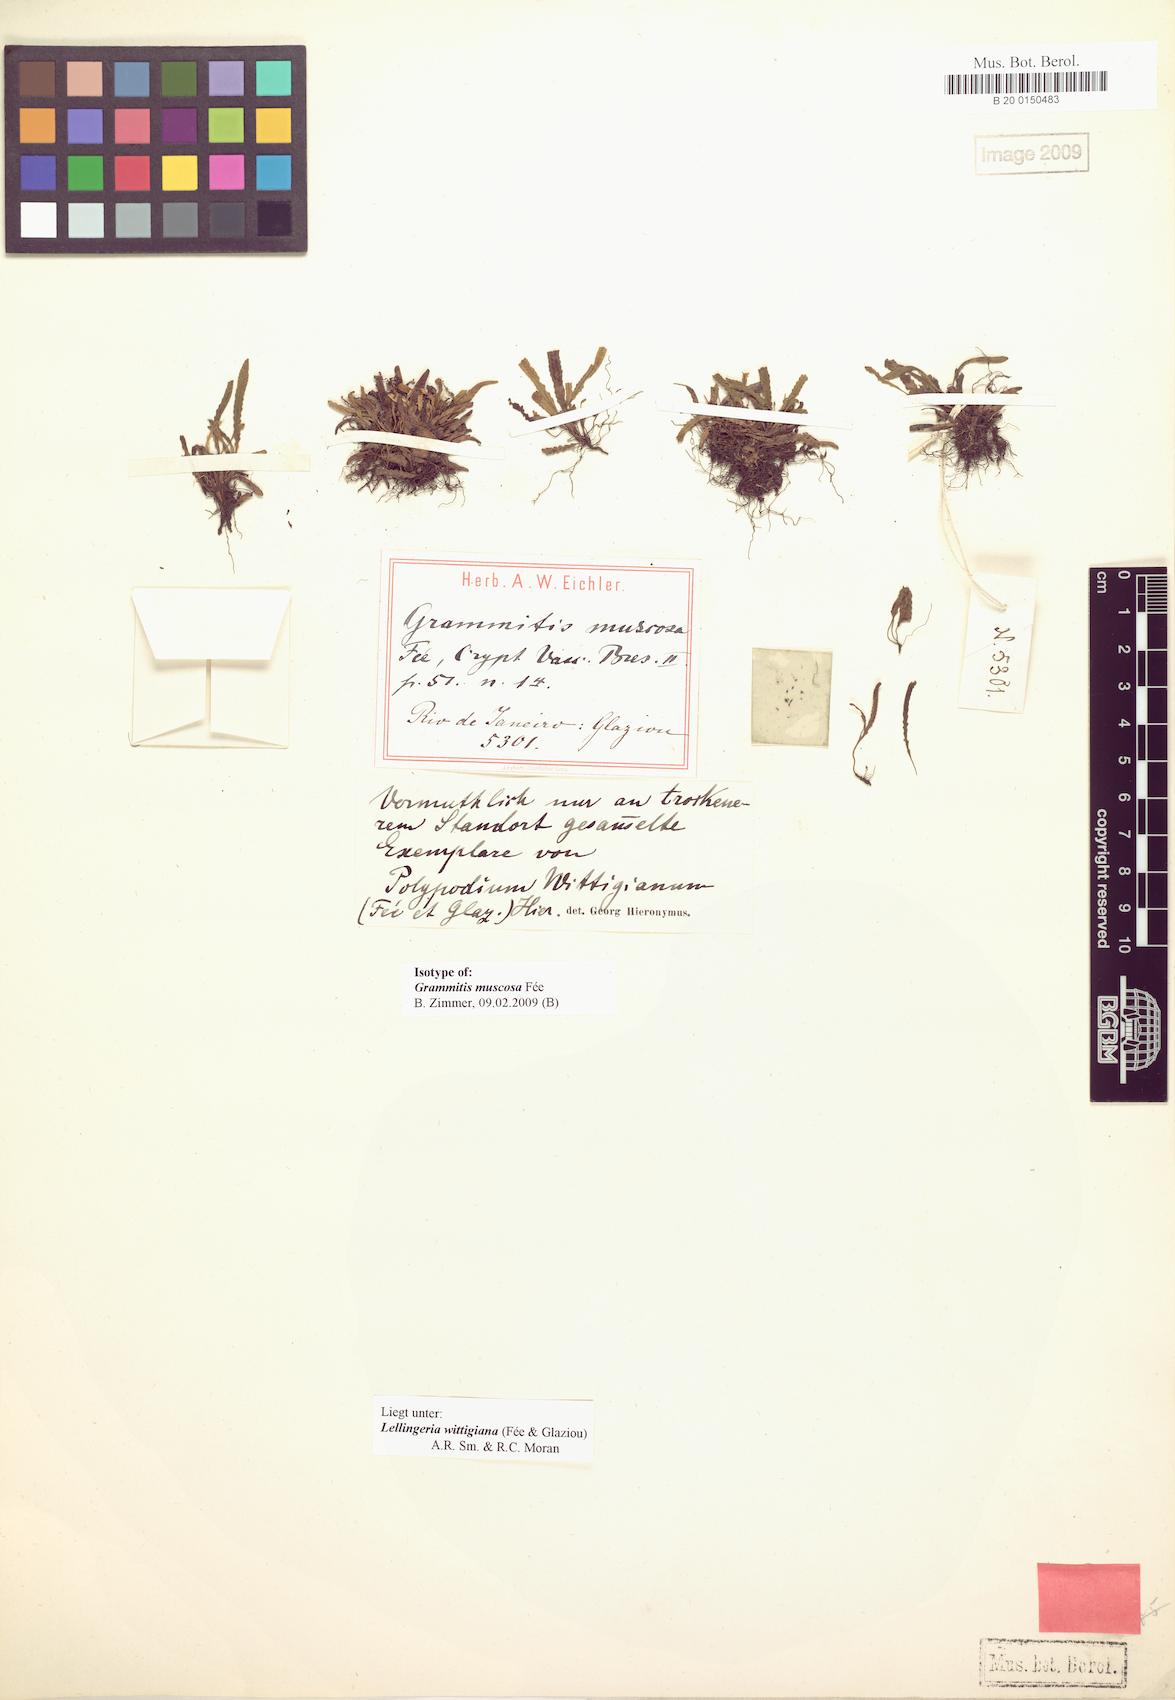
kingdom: Plantae
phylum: Tracheophyta
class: Polypodiopsida
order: Polypodiales
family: Polypodiaceae
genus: Stenogrammitis
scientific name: Stenogrammitis wittigiana
